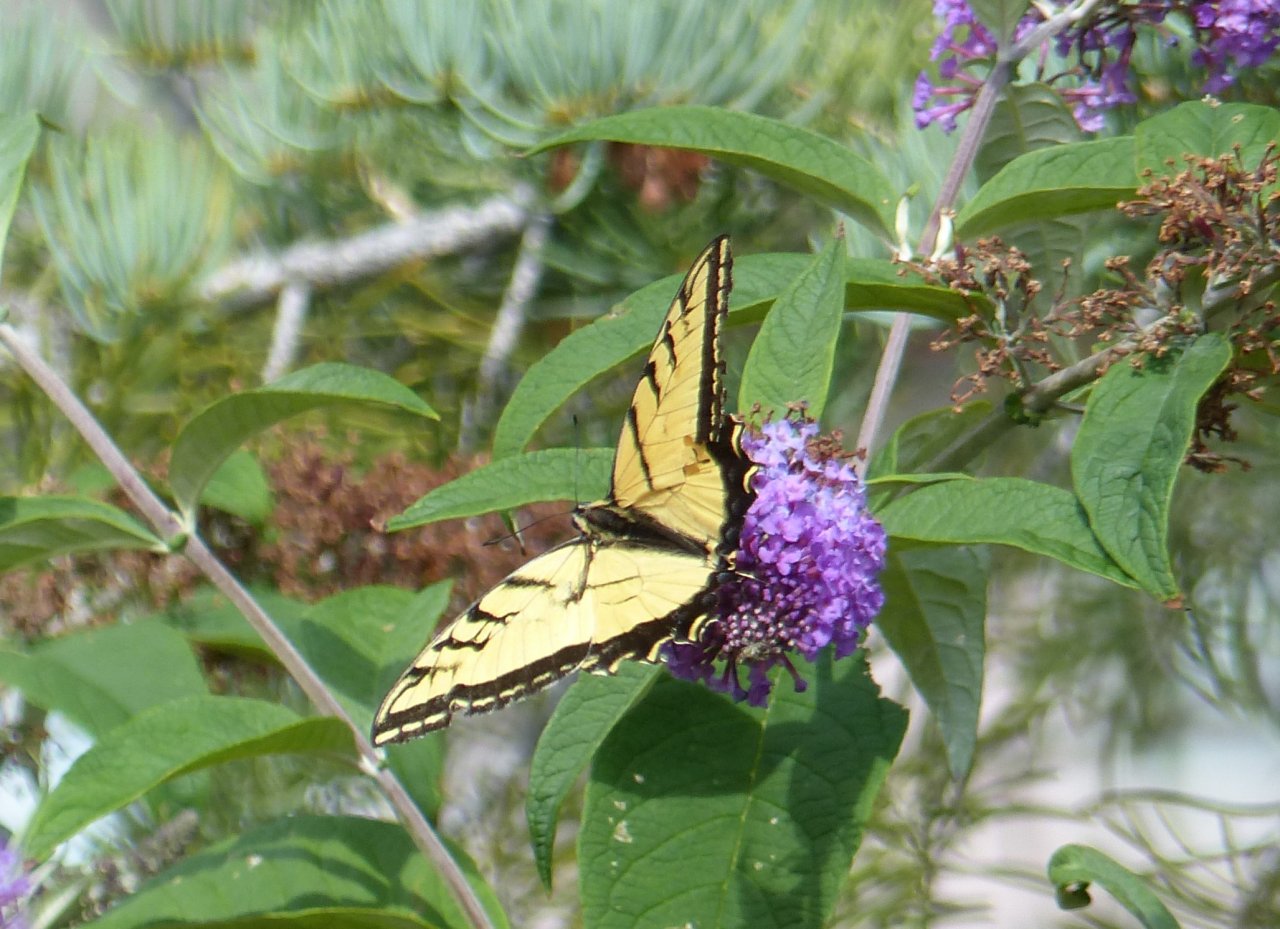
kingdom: Animalia
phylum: Arthropoda
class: Insecta
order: Lepidoptera
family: Papilionidae
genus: Papilio
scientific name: Papilio multicaudata
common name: Two-tailed Swallowtail
